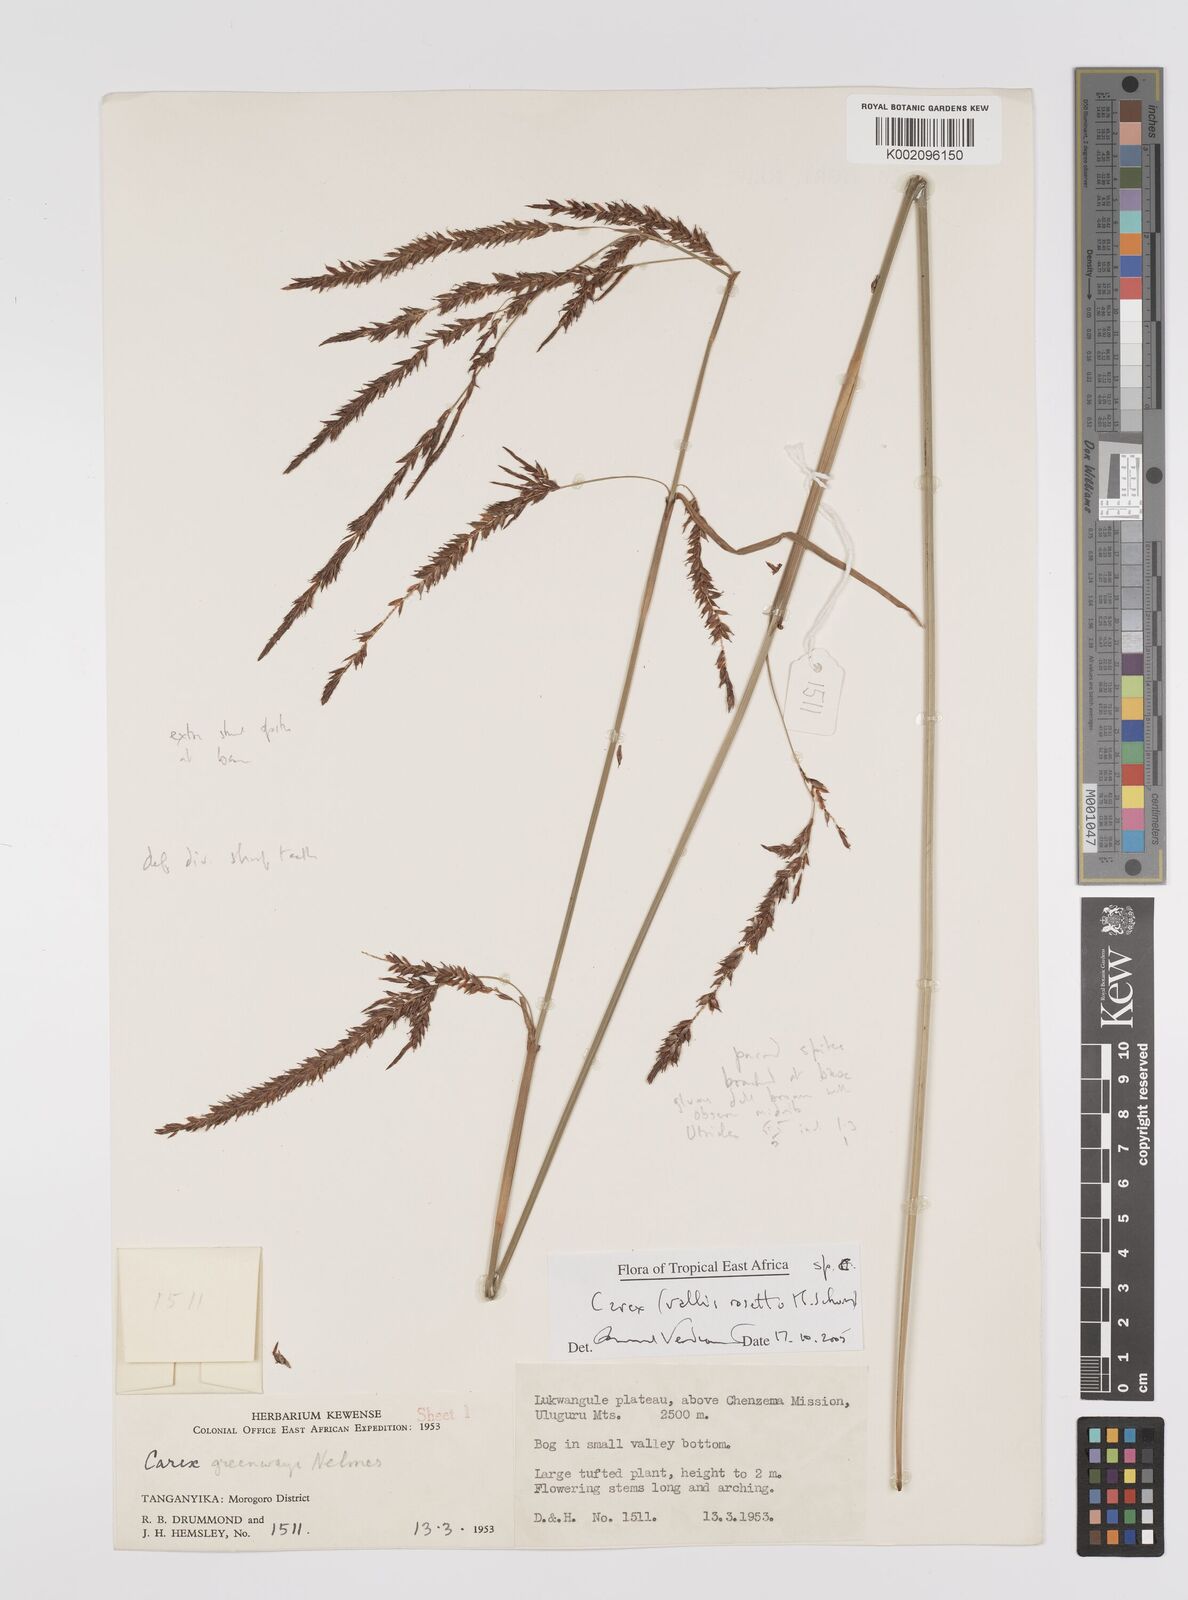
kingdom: Plantae
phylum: Tracheophyta
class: Liliopsida
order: Poales
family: Cyperaceae
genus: Carex
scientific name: Carex
